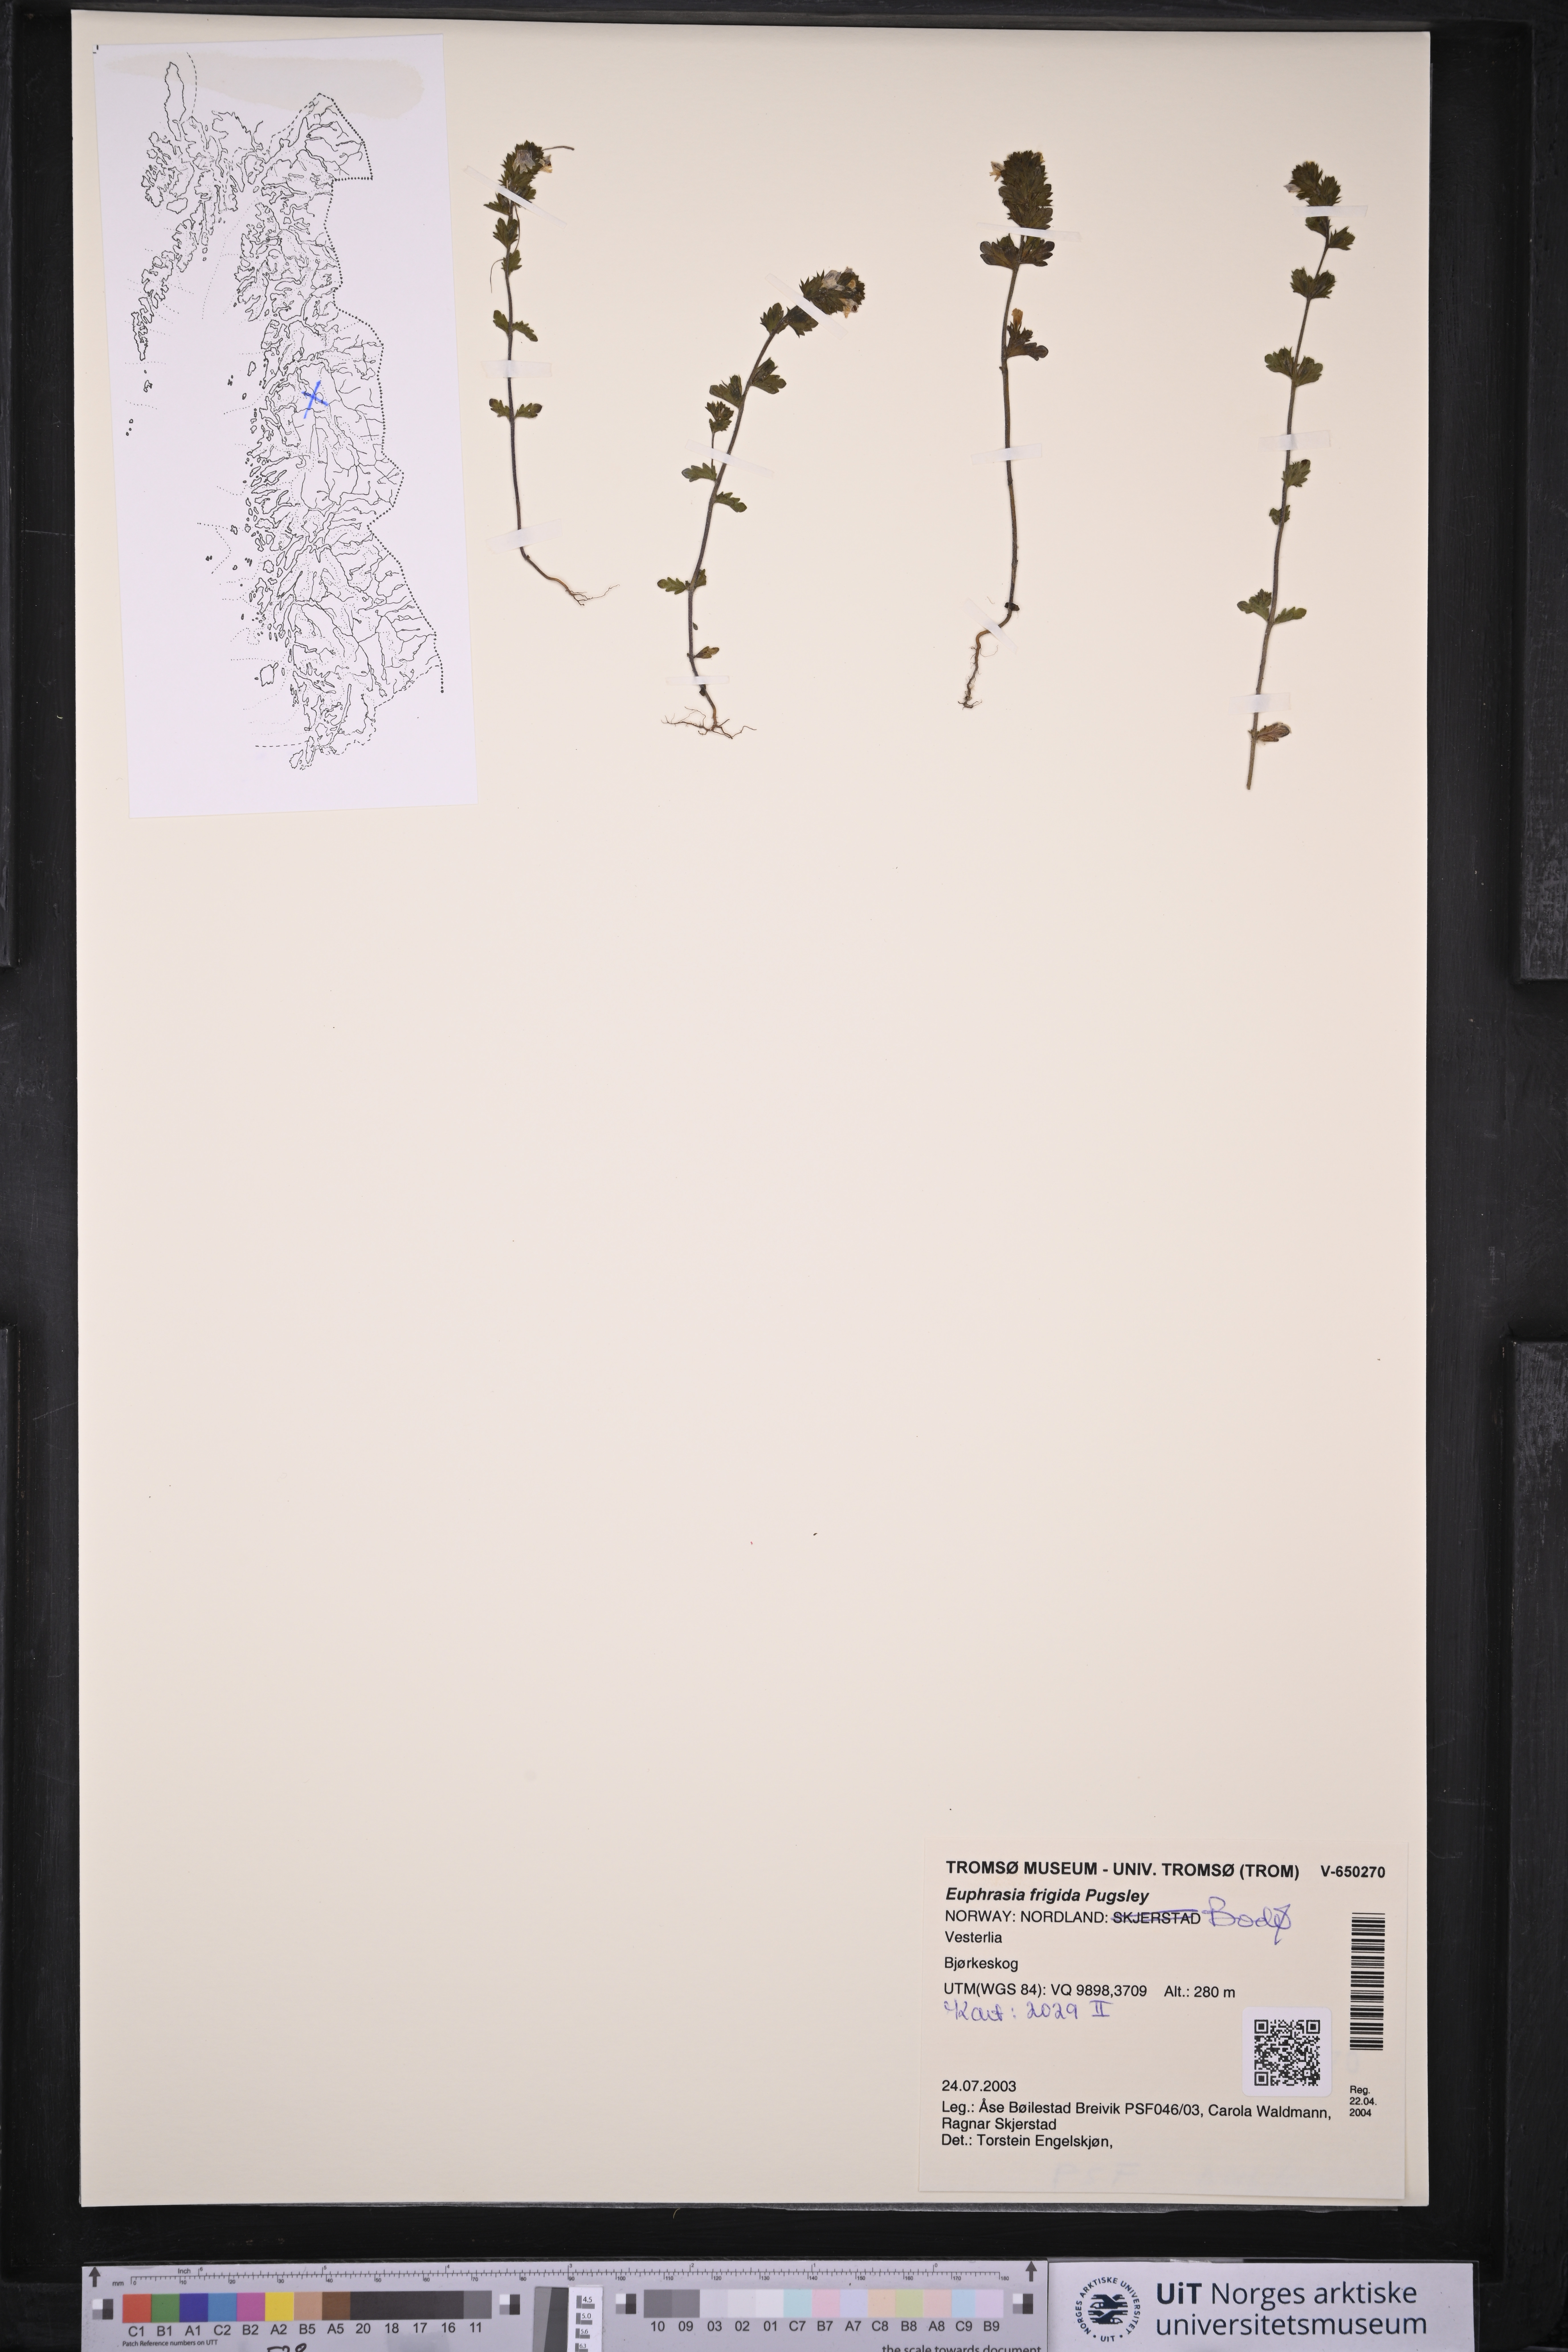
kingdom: Plantae
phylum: Tracheophyta
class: Magnoliopsida
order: Lamiales
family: Orobanchaceae
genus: Euphrasia
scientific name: Euphrasia frigida
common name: An eyebright
